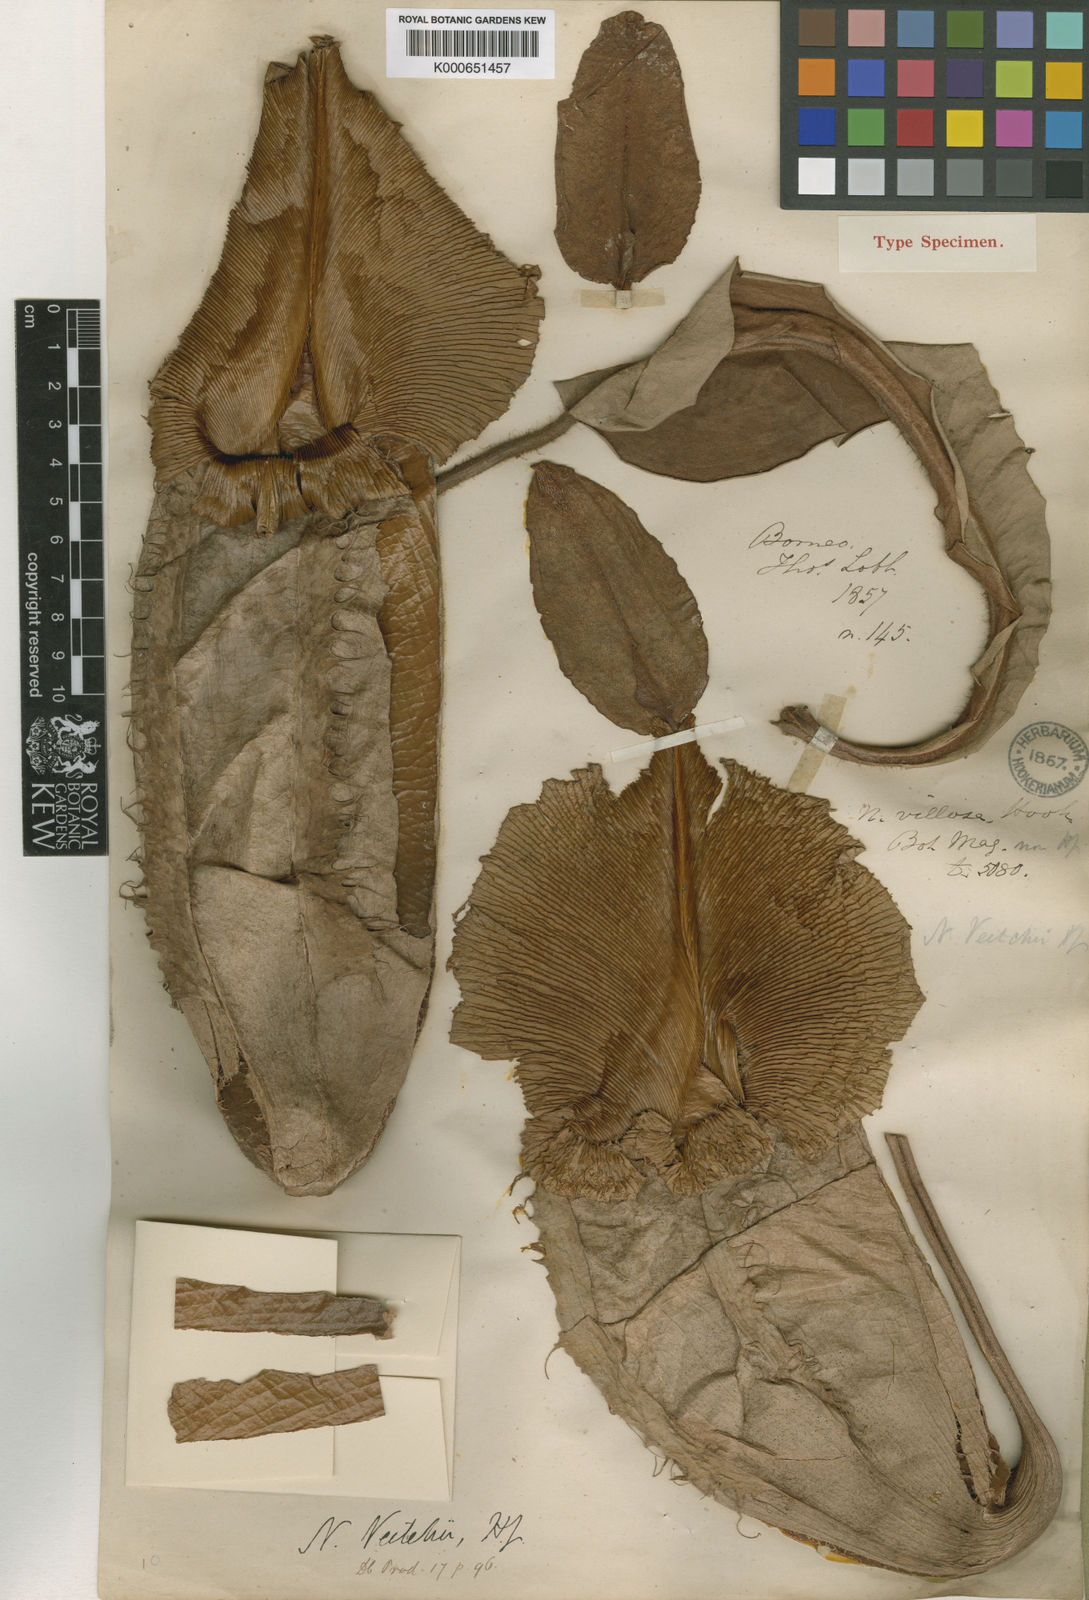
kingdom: Plantae
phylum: Tracheophyta
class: Magnoliopsida
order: Caryophyllales
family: Nepenthaceae
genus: Nepenthes
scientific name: Nepenthes veitchii
